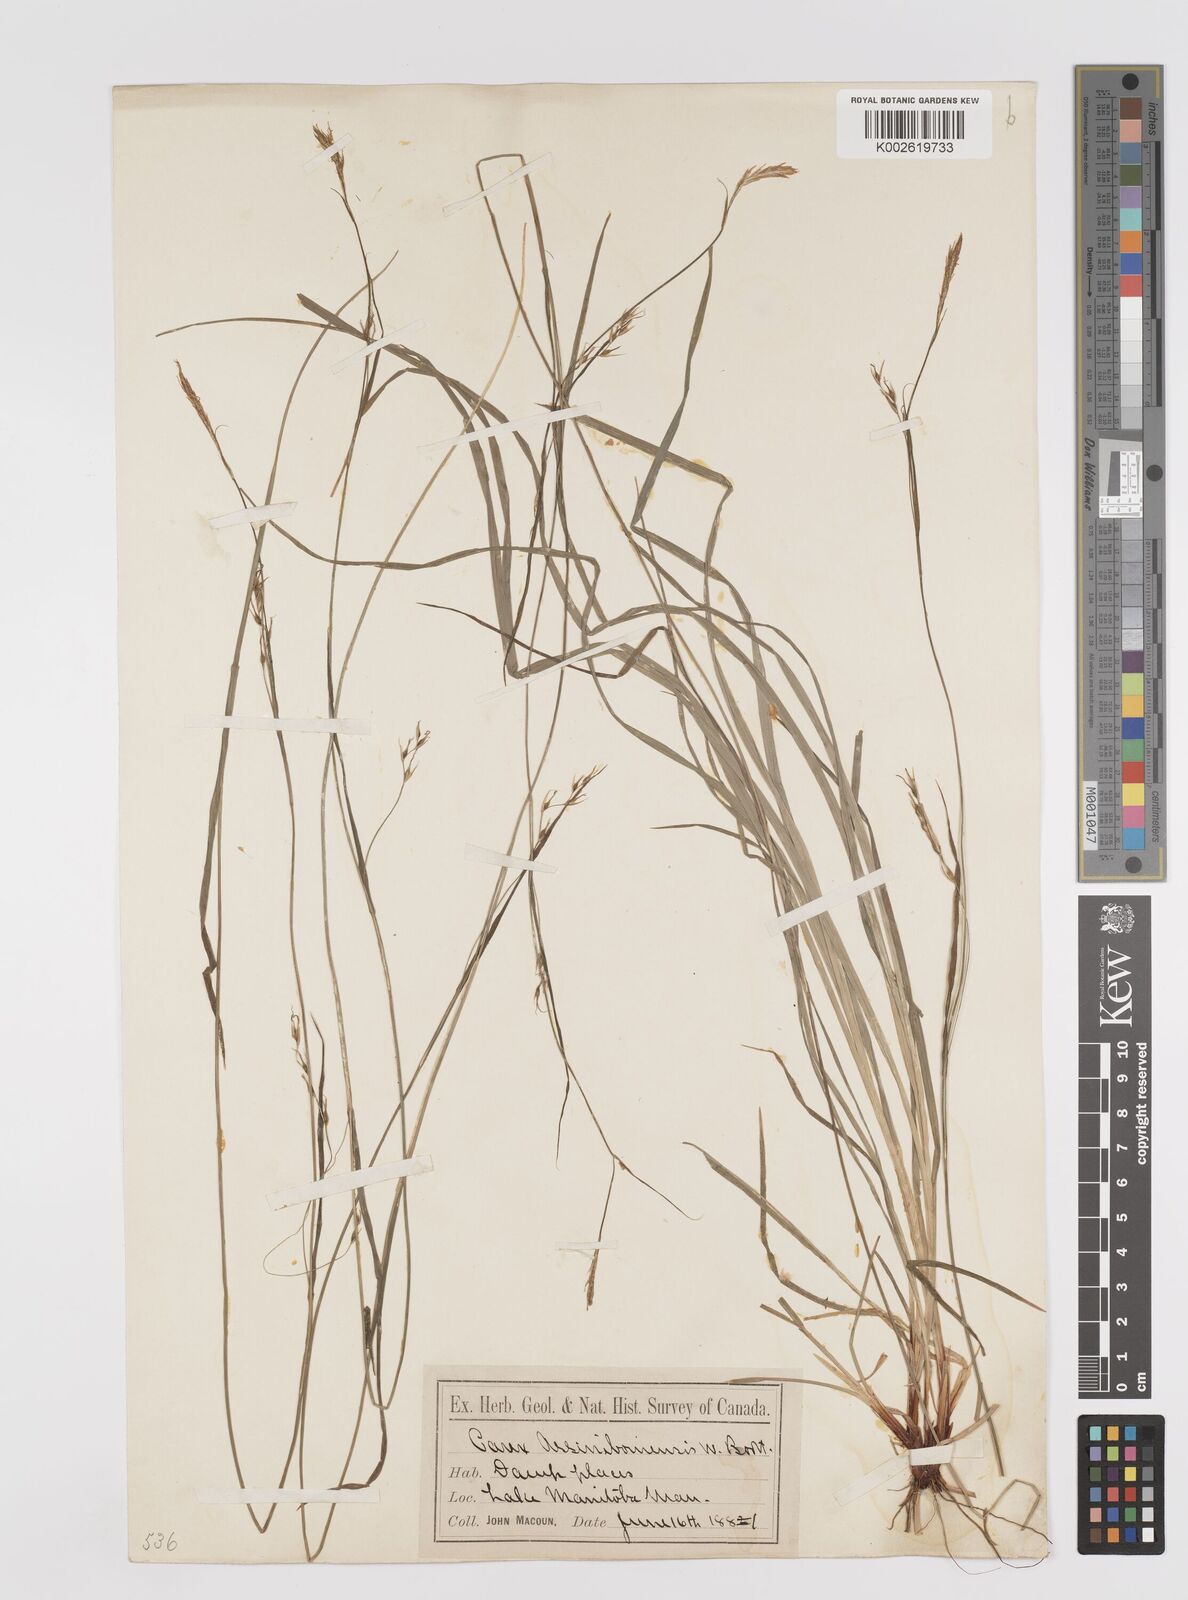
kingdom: Plantae
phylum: Tracheophyta
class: Liliopsida
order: Poales
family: Cyperaceae
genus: Carex
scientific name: Carex assiniboinensis
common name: Assiniboia sedge
